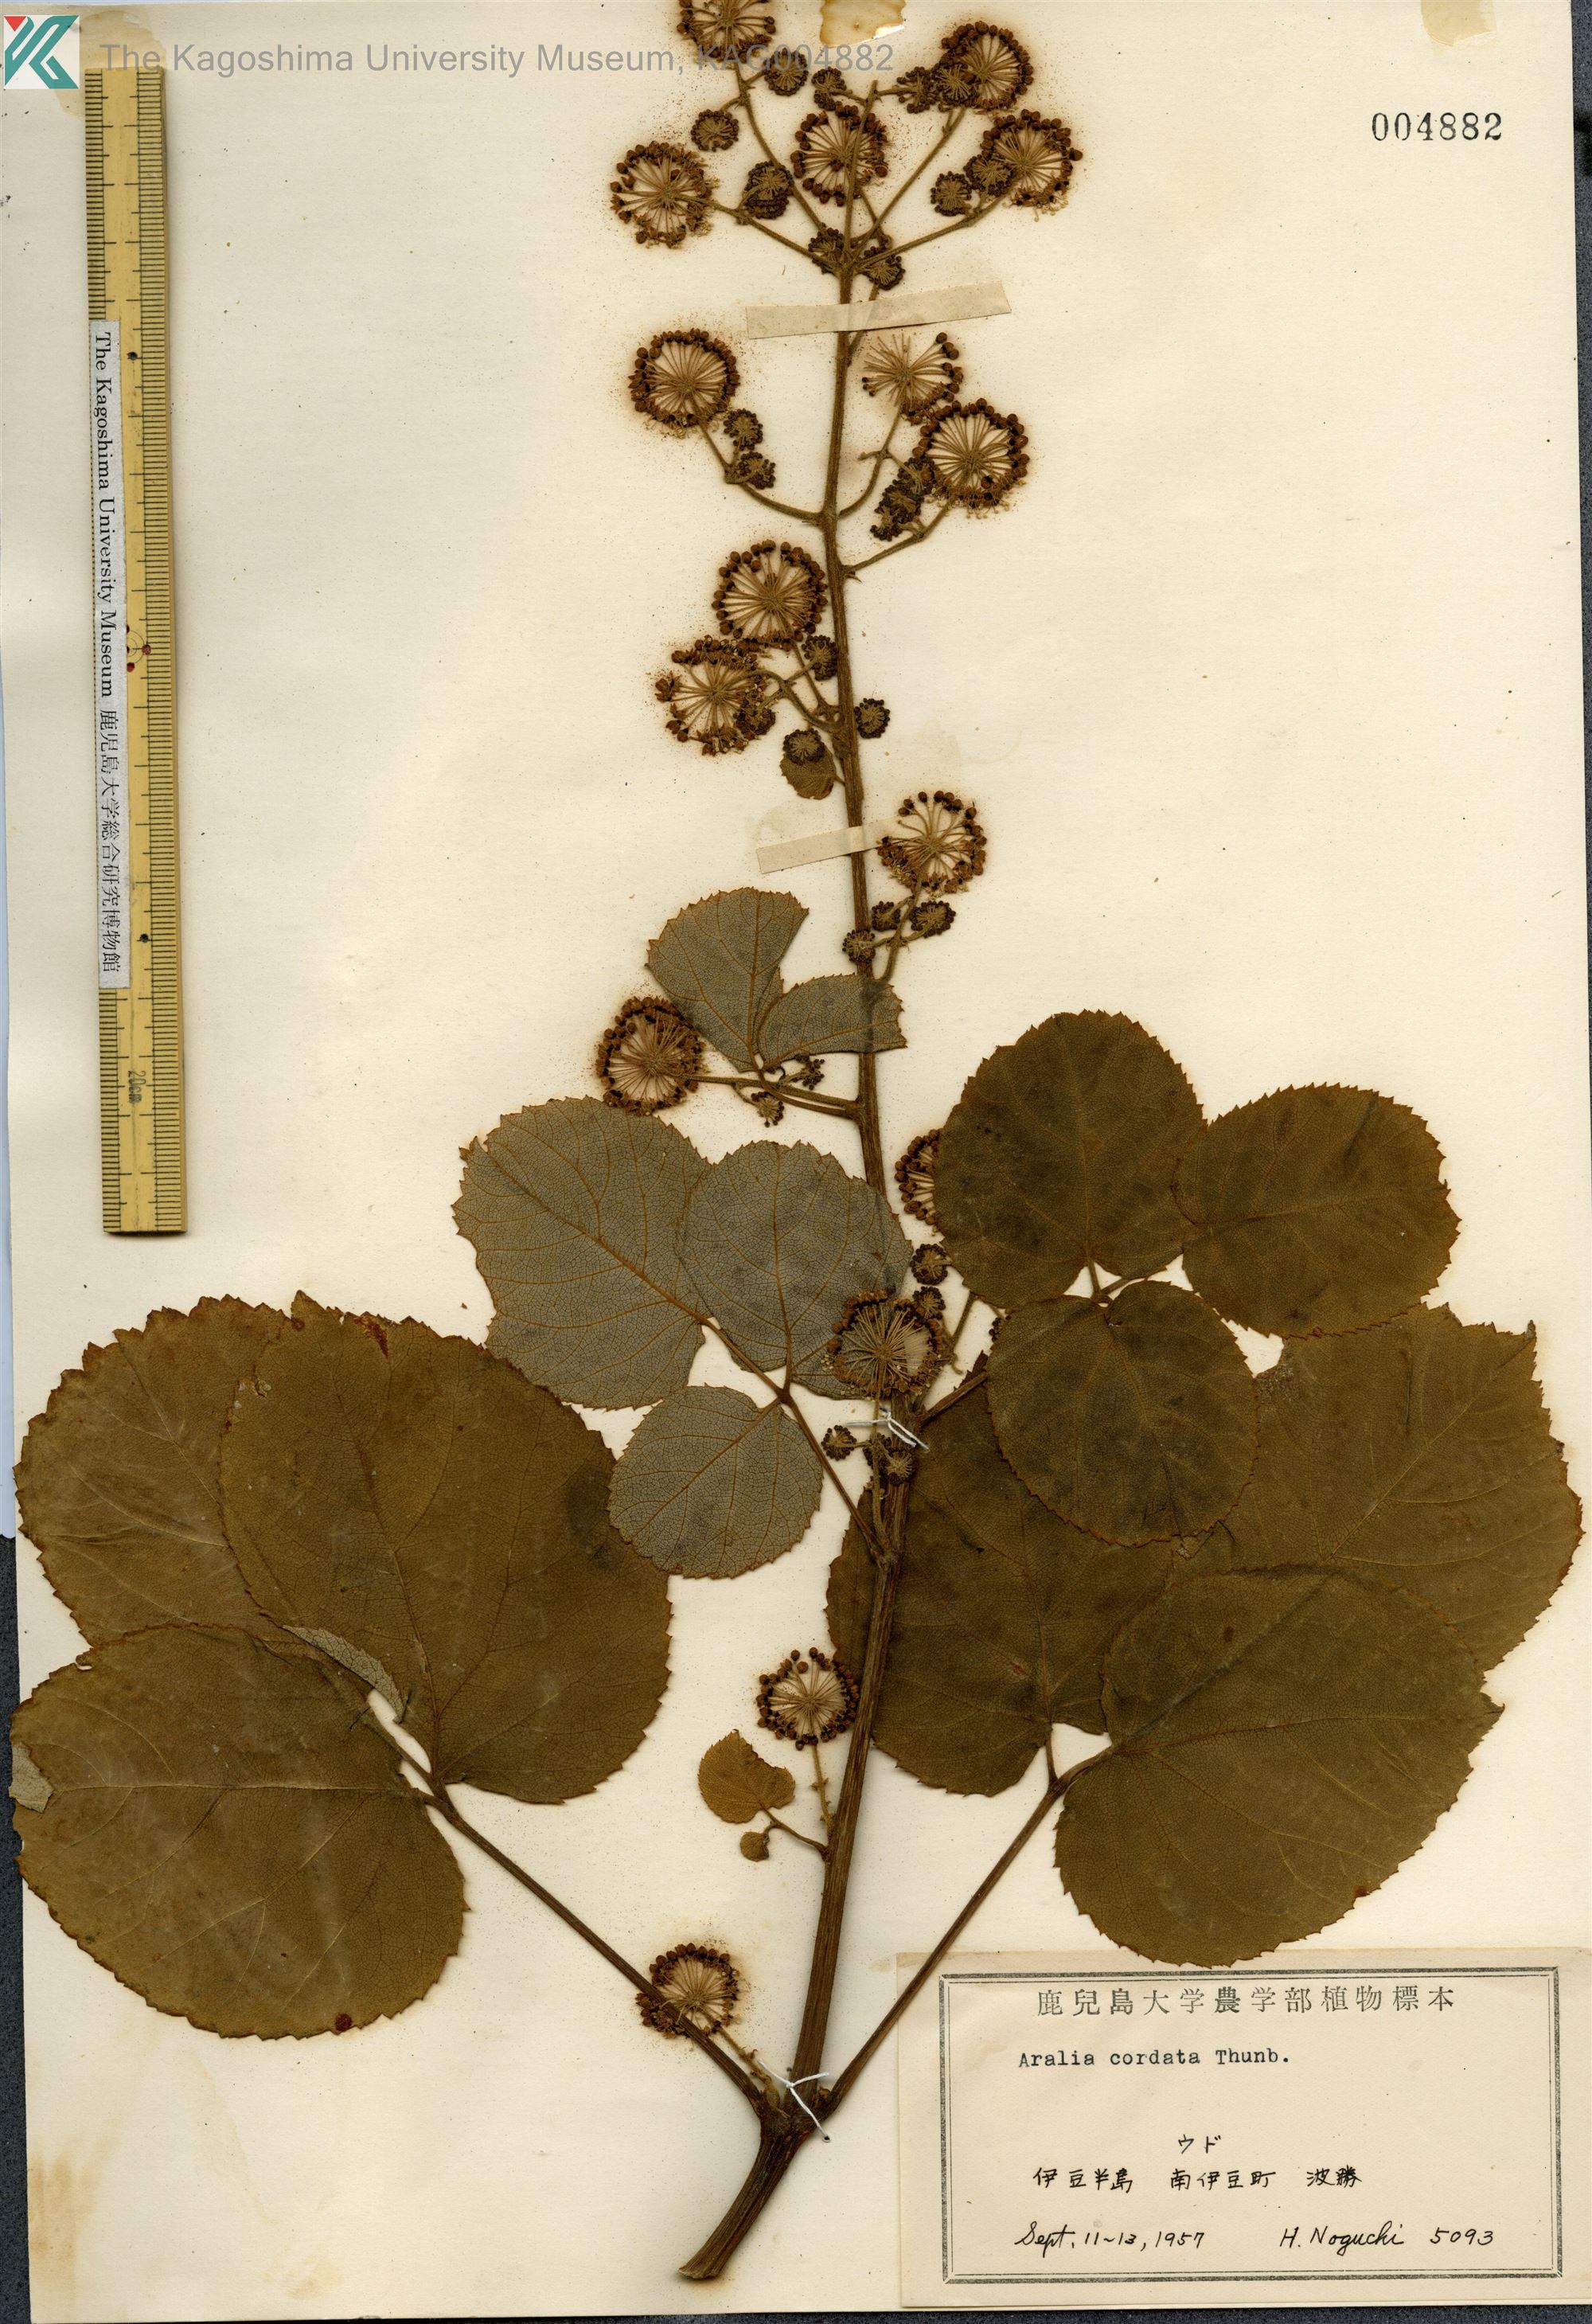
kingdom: Plantae
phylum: Tracheophyta
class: Magnoliopsida
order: Apiales
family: Araliaceae
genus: Aralia
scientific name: Aralia cordata
